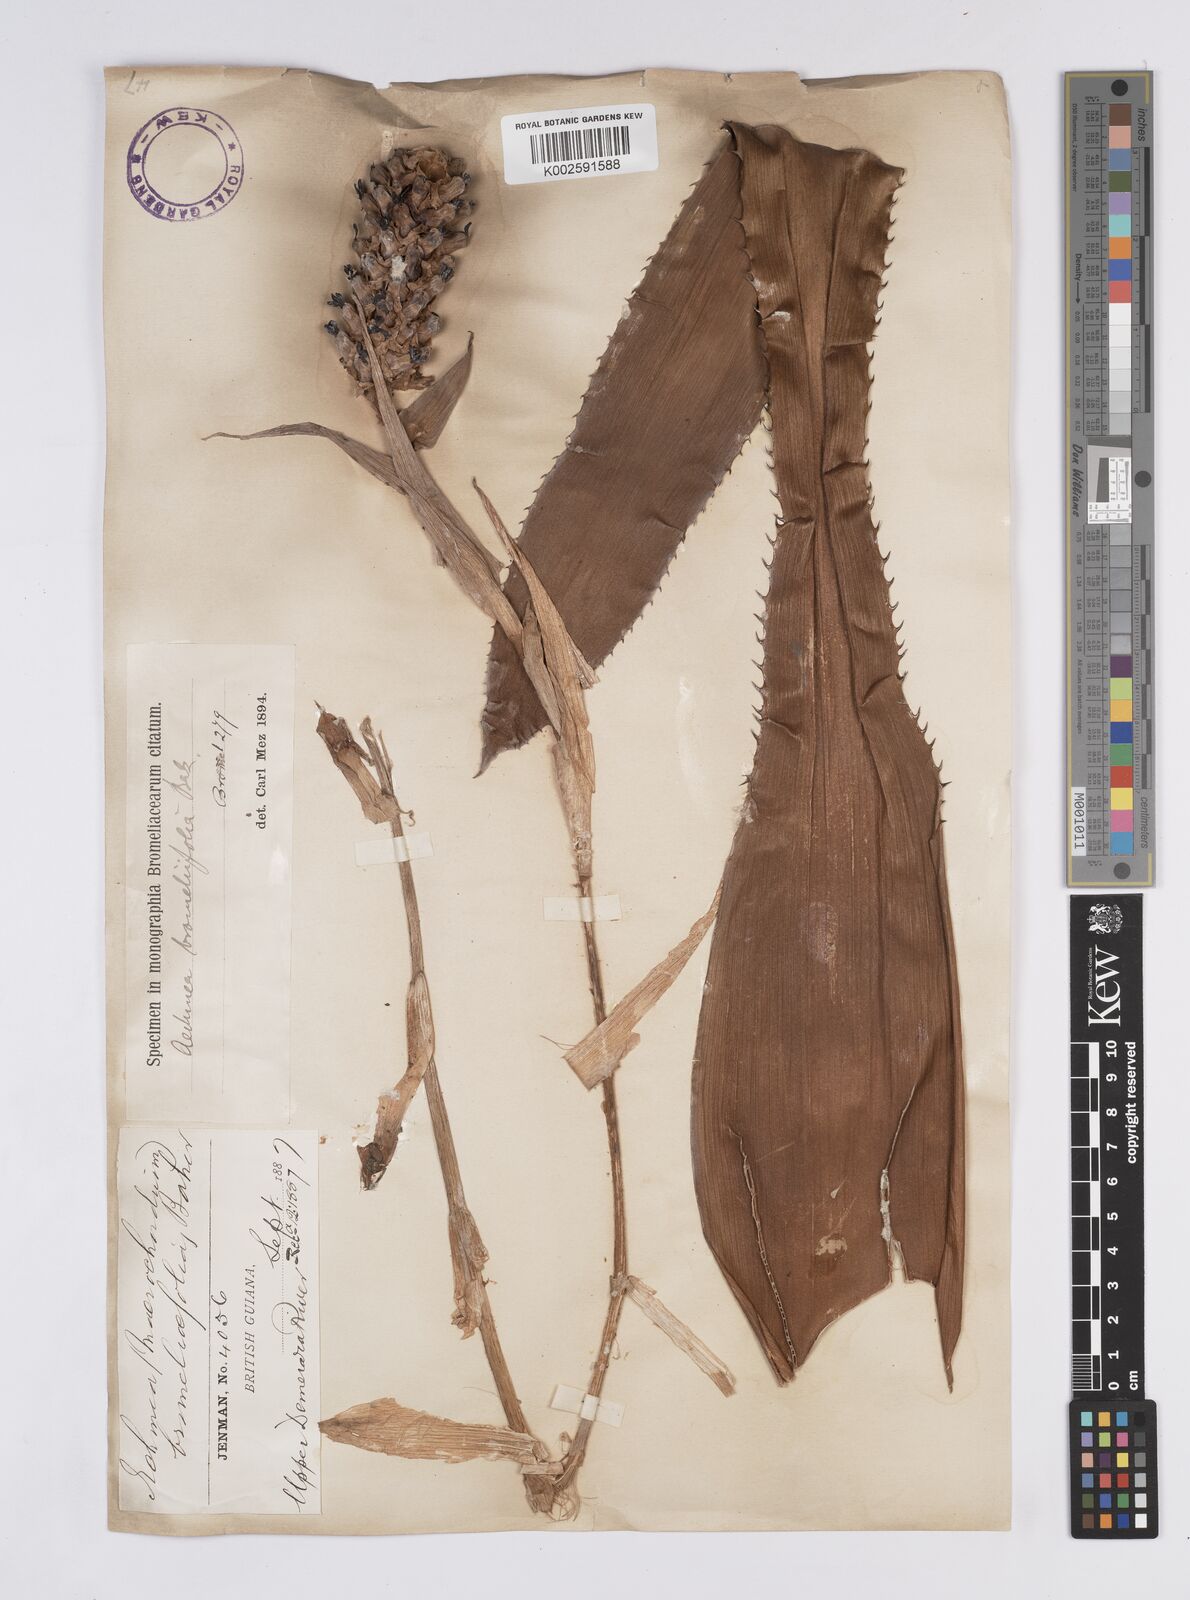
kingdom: Plantae
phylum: Tracheophyta
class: Liliopsida
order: Poales
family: Bromeliaceae
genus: Aechmea
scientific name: Aechmea bromeliifolia
